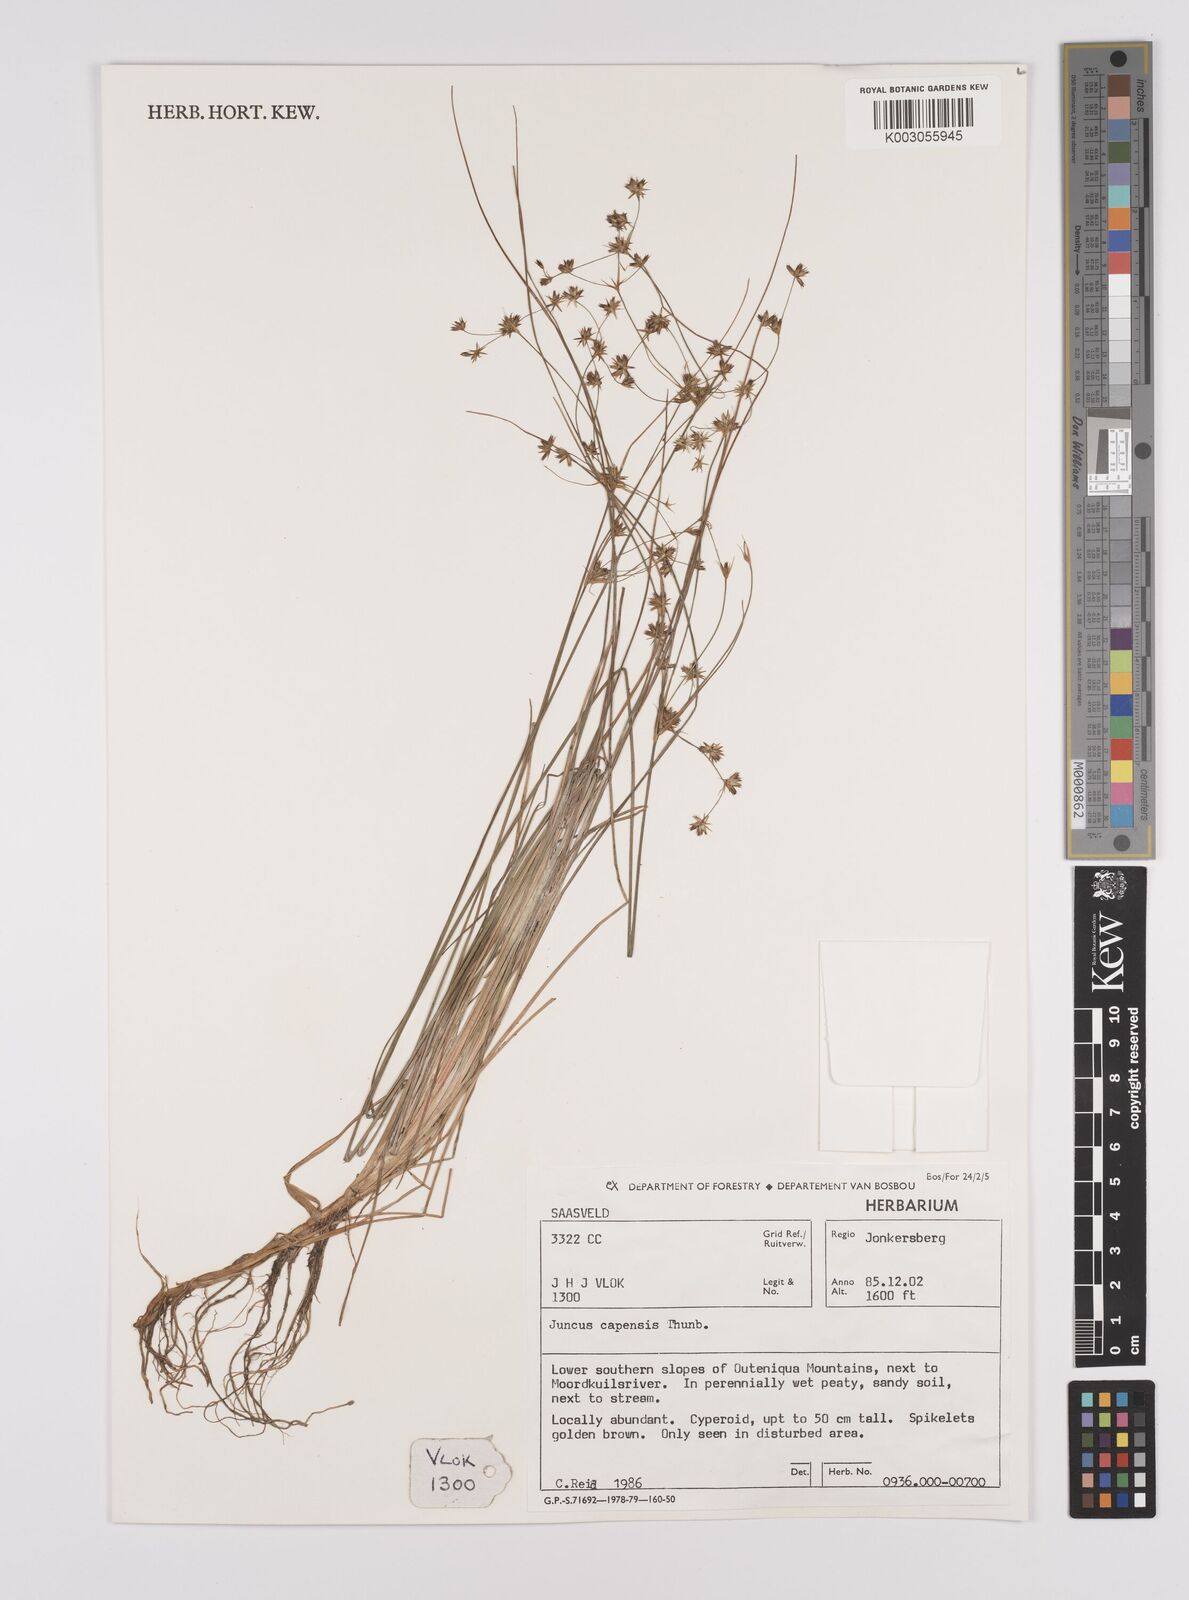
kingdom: Plantae
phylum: Tracheophyta
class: Liliopsida
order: Poales
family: Juncaceae
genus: Juncus
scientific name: Juncus capensis
